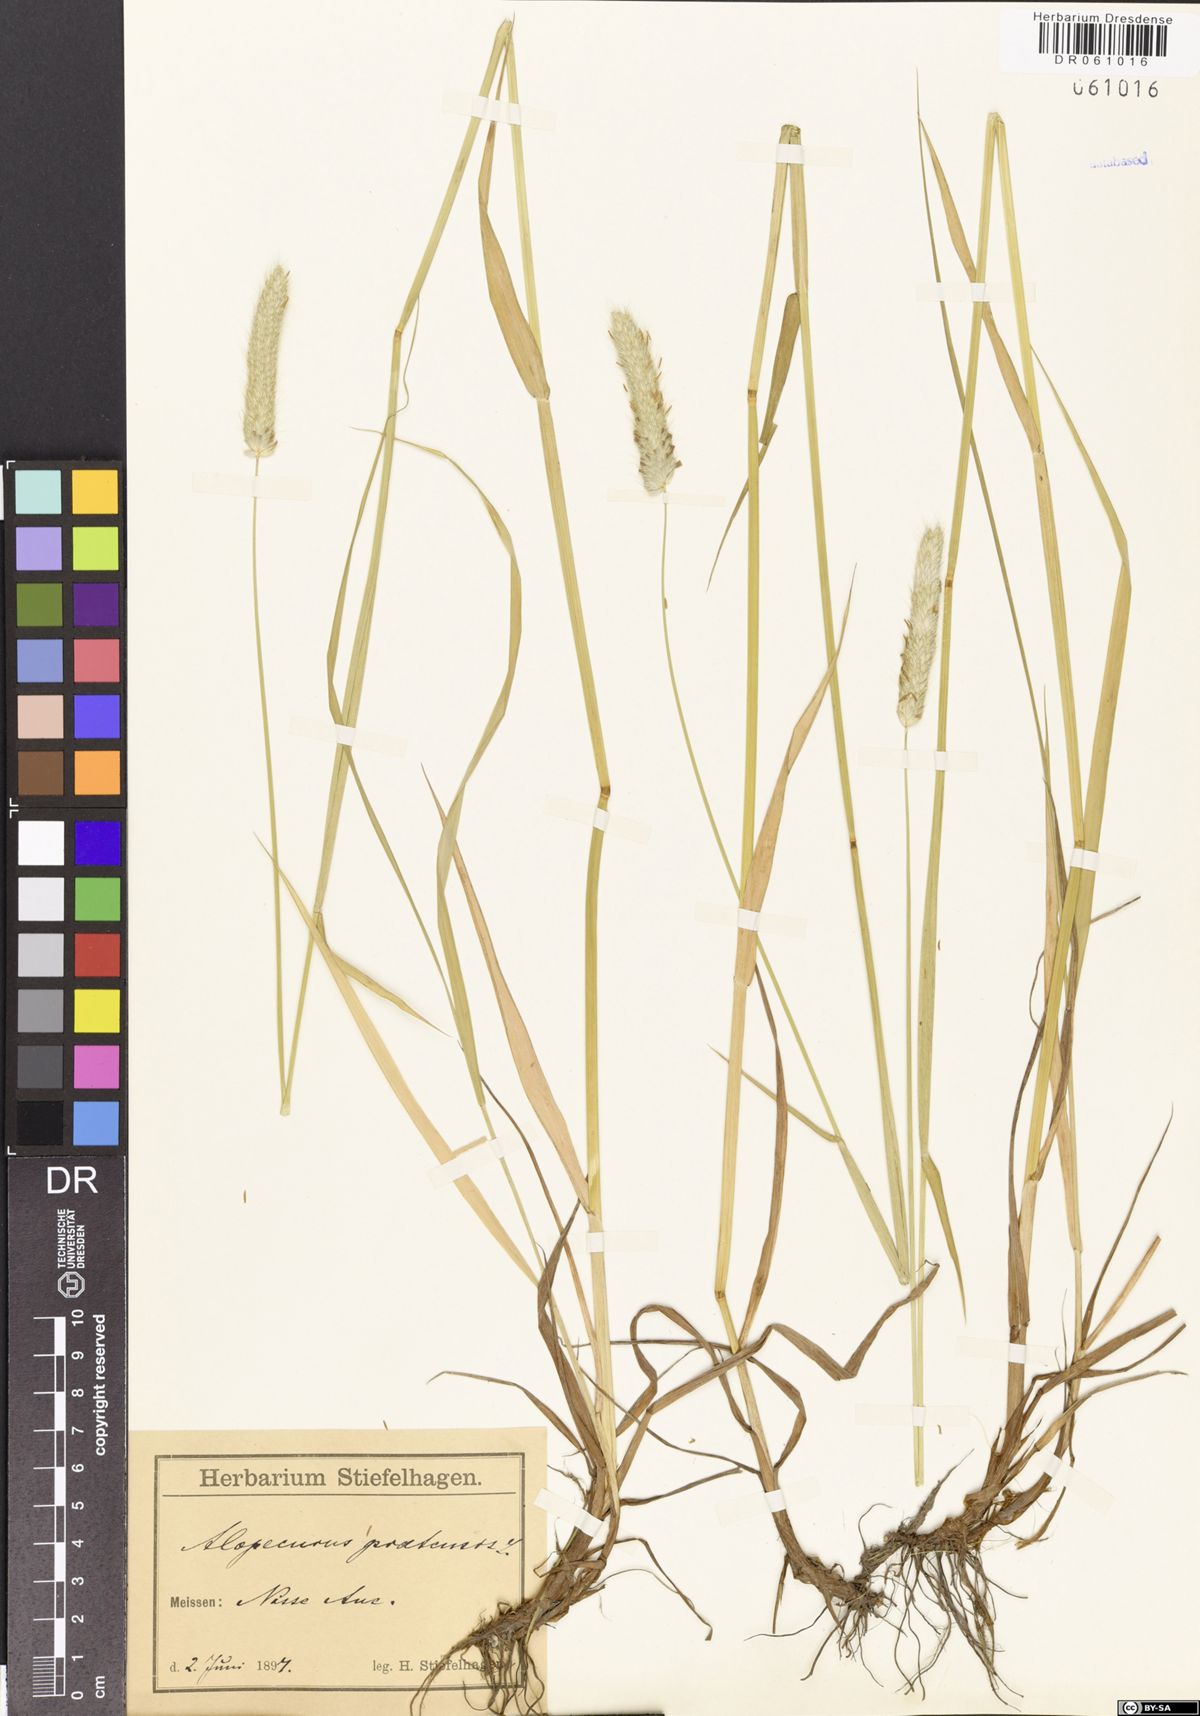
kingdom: Plantae
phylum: Tracheophyta
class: Liliopsida
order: Poales
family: Poaceae
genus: Alopecurus
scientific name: Alopecurus pratensis
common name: Meadow foxtail
